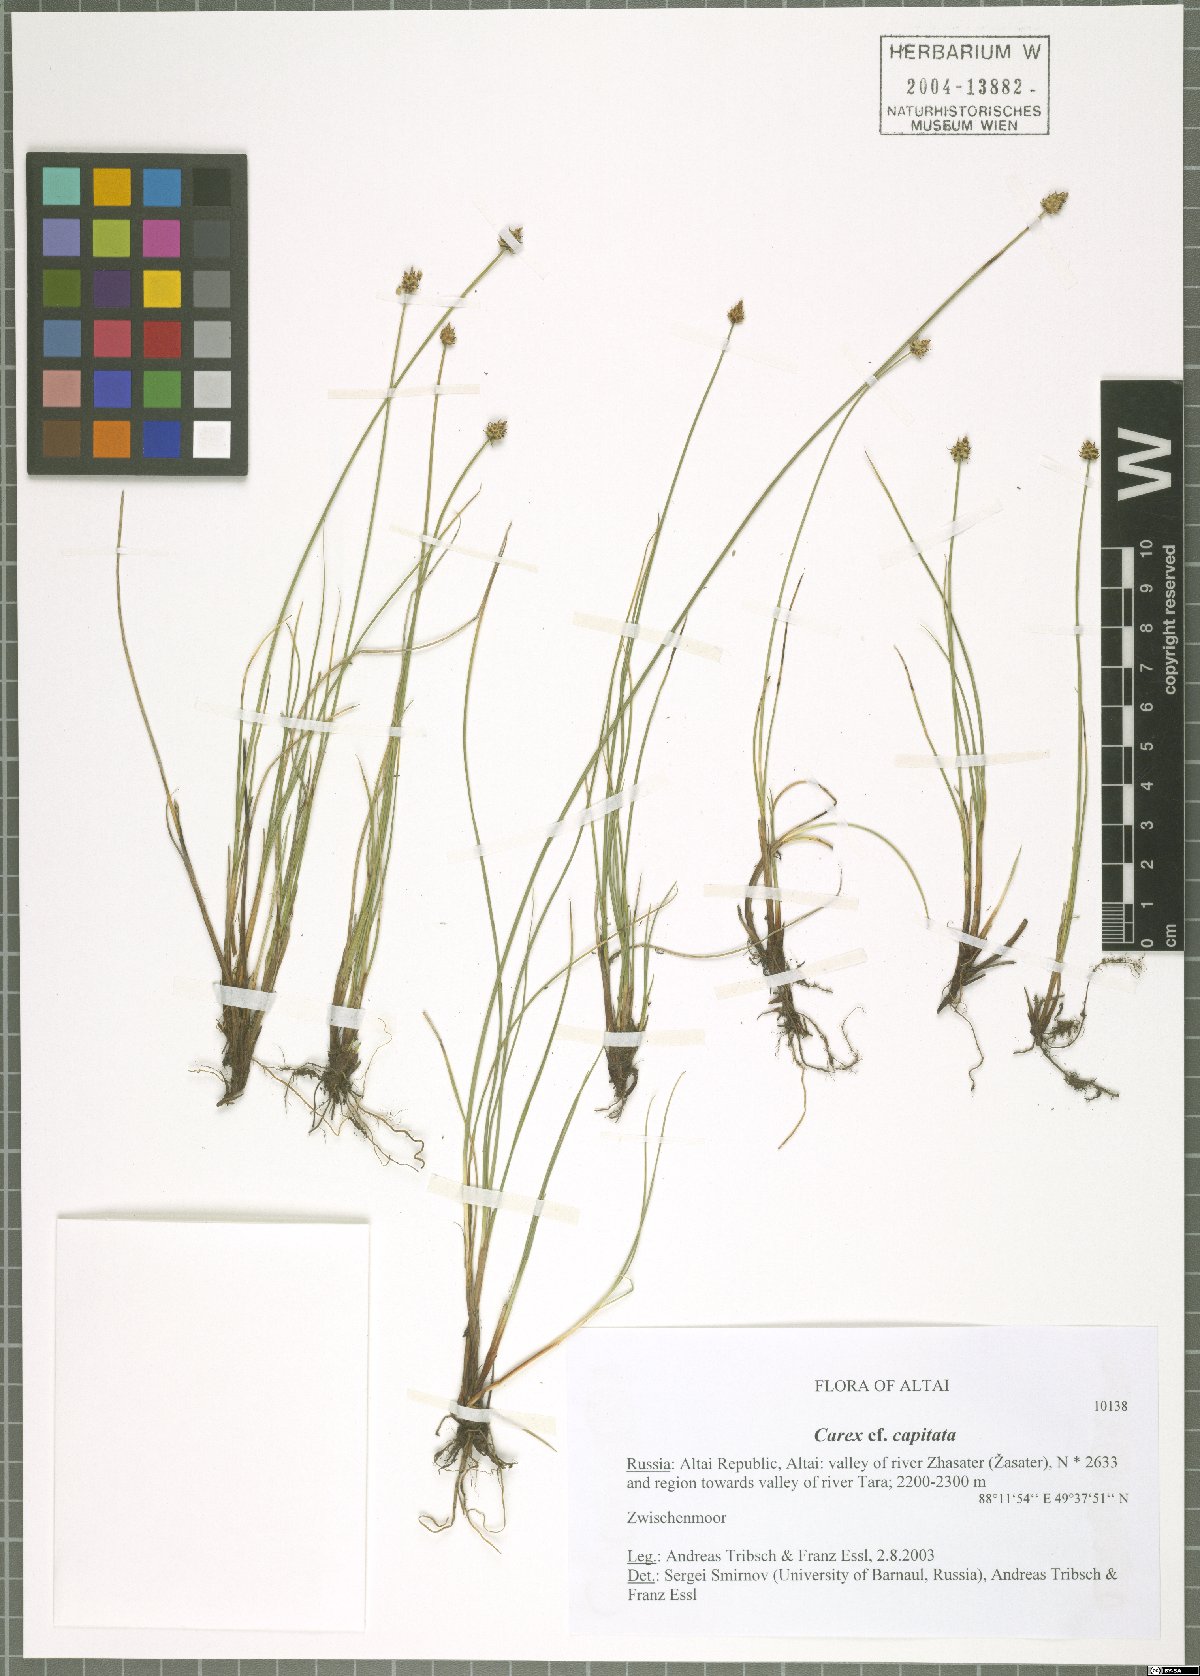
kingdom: Plantae
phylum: Tracheophyta
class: Liliopsida
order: Poales
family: Cyperaceae
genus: Carex
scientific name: Carex capitata
